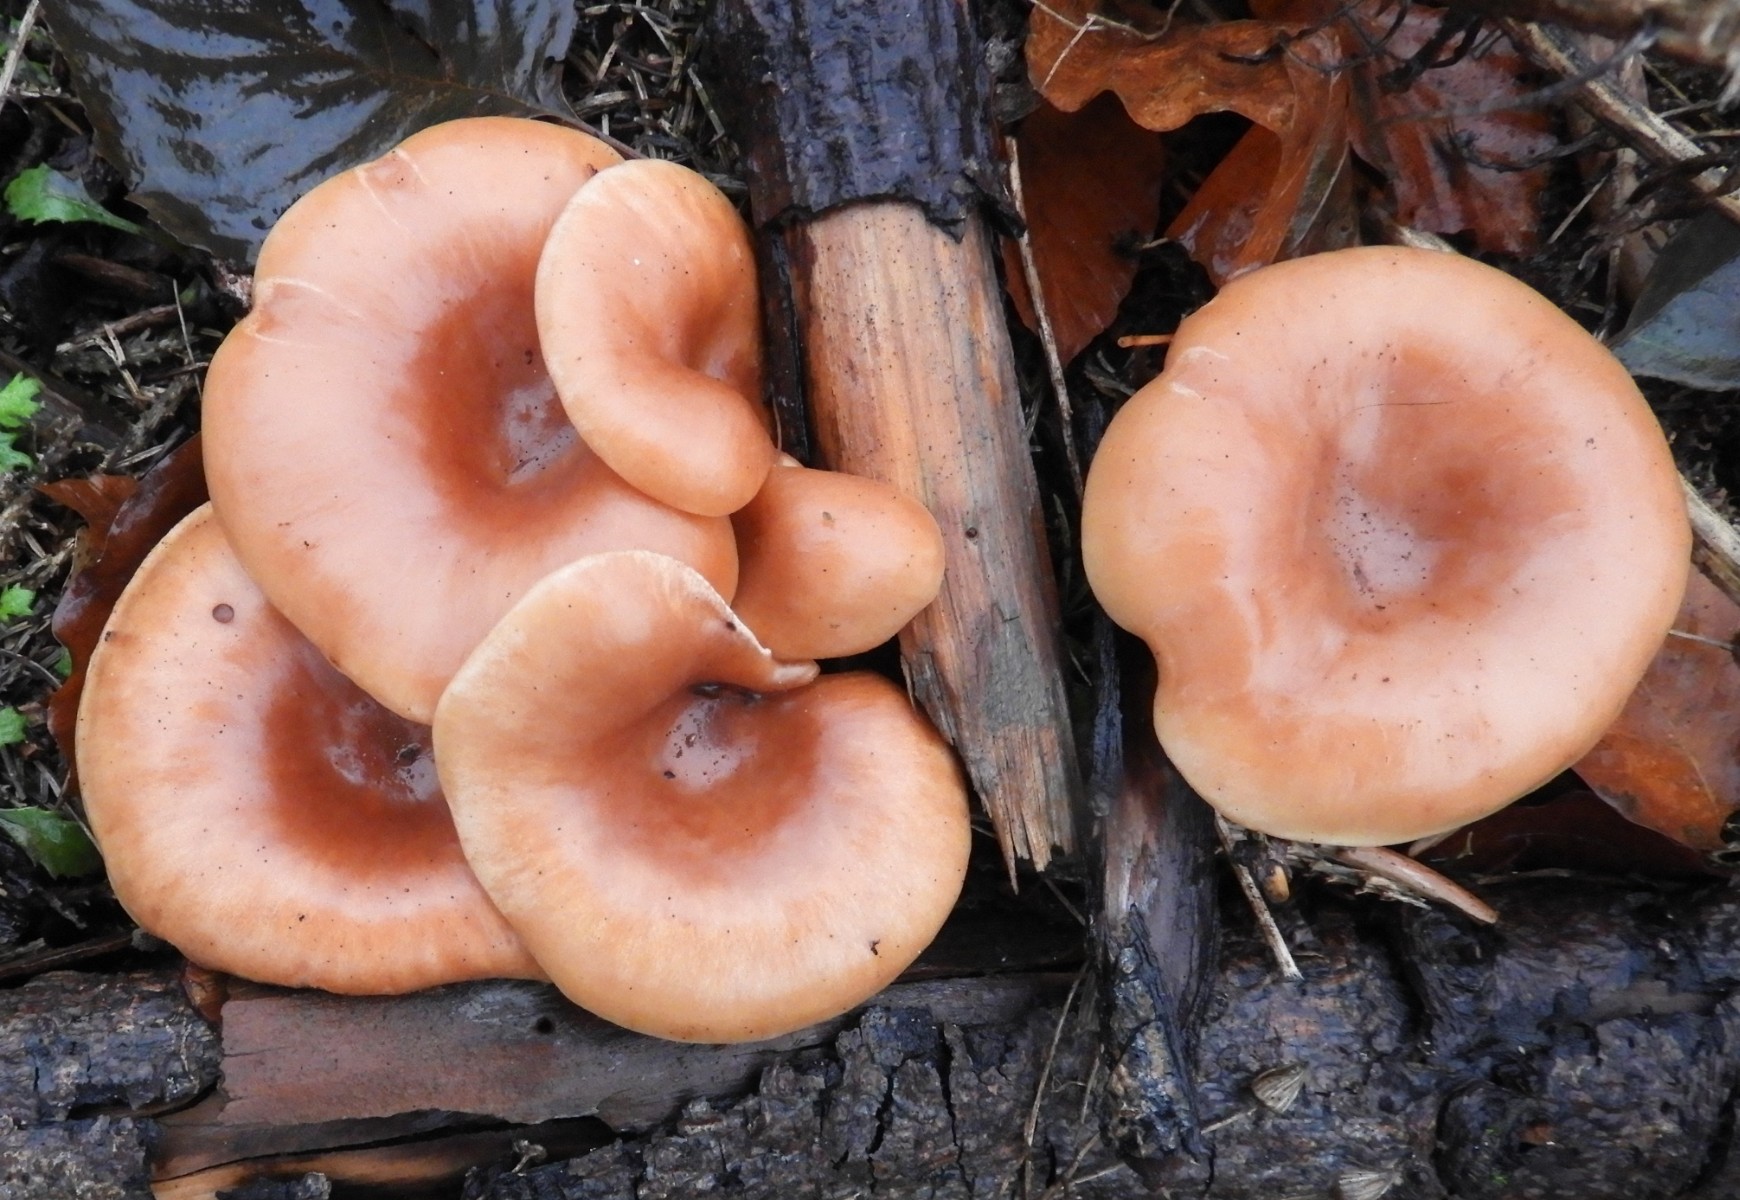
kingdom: Fungi
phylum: Basidiomycota
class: Agaricomycetes
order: Agaricales
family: Tricholomataceae
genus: Paralepista
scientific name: Paralepista flaccida
